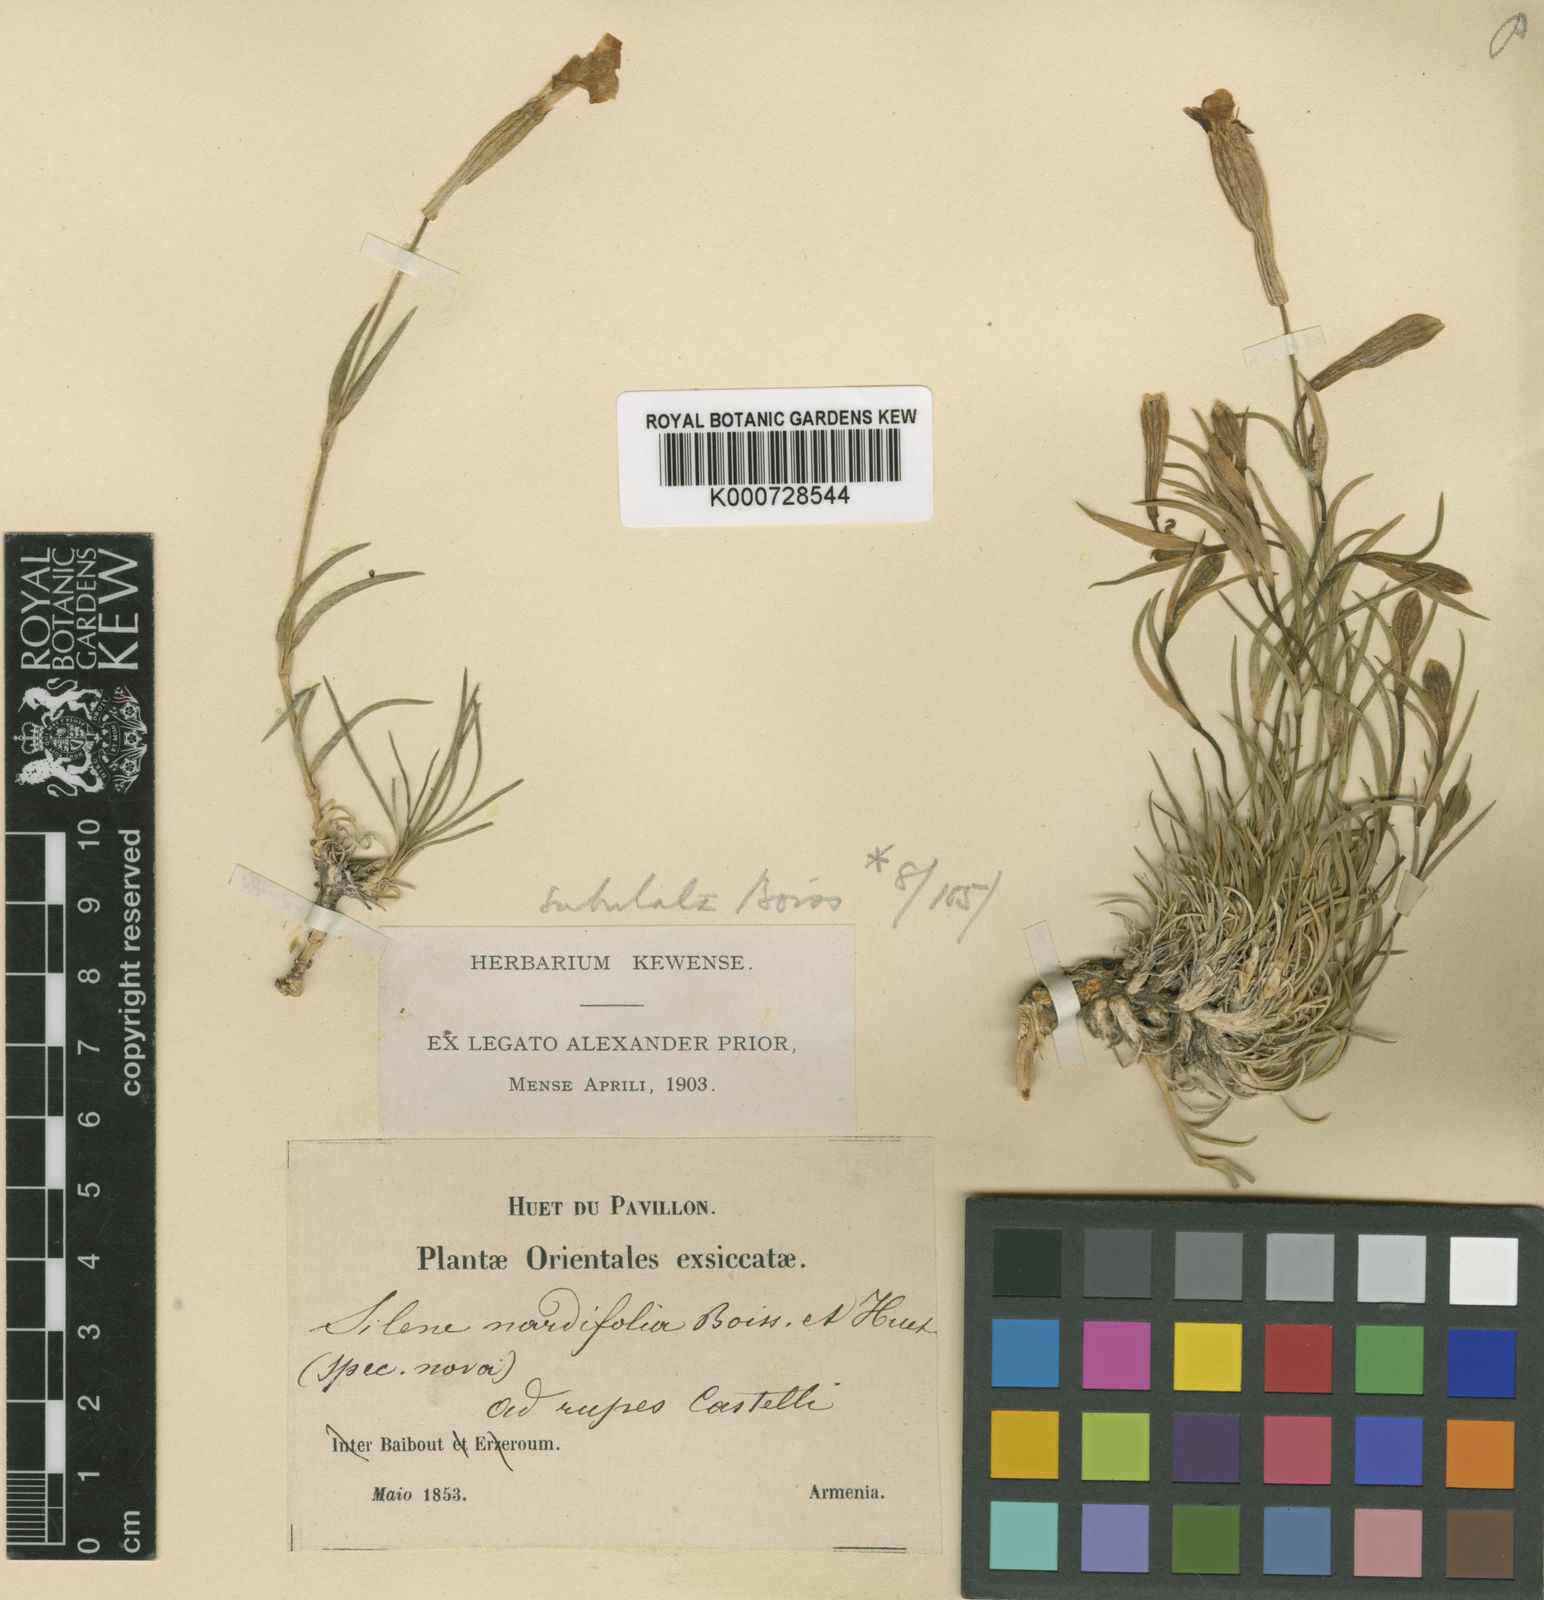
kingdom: Plantae
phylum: Tracheophyta
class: Magnoliopsida
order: Caryophyllales
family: Caryophyllaceae
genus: Silene
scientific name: Silene caryophylloides
